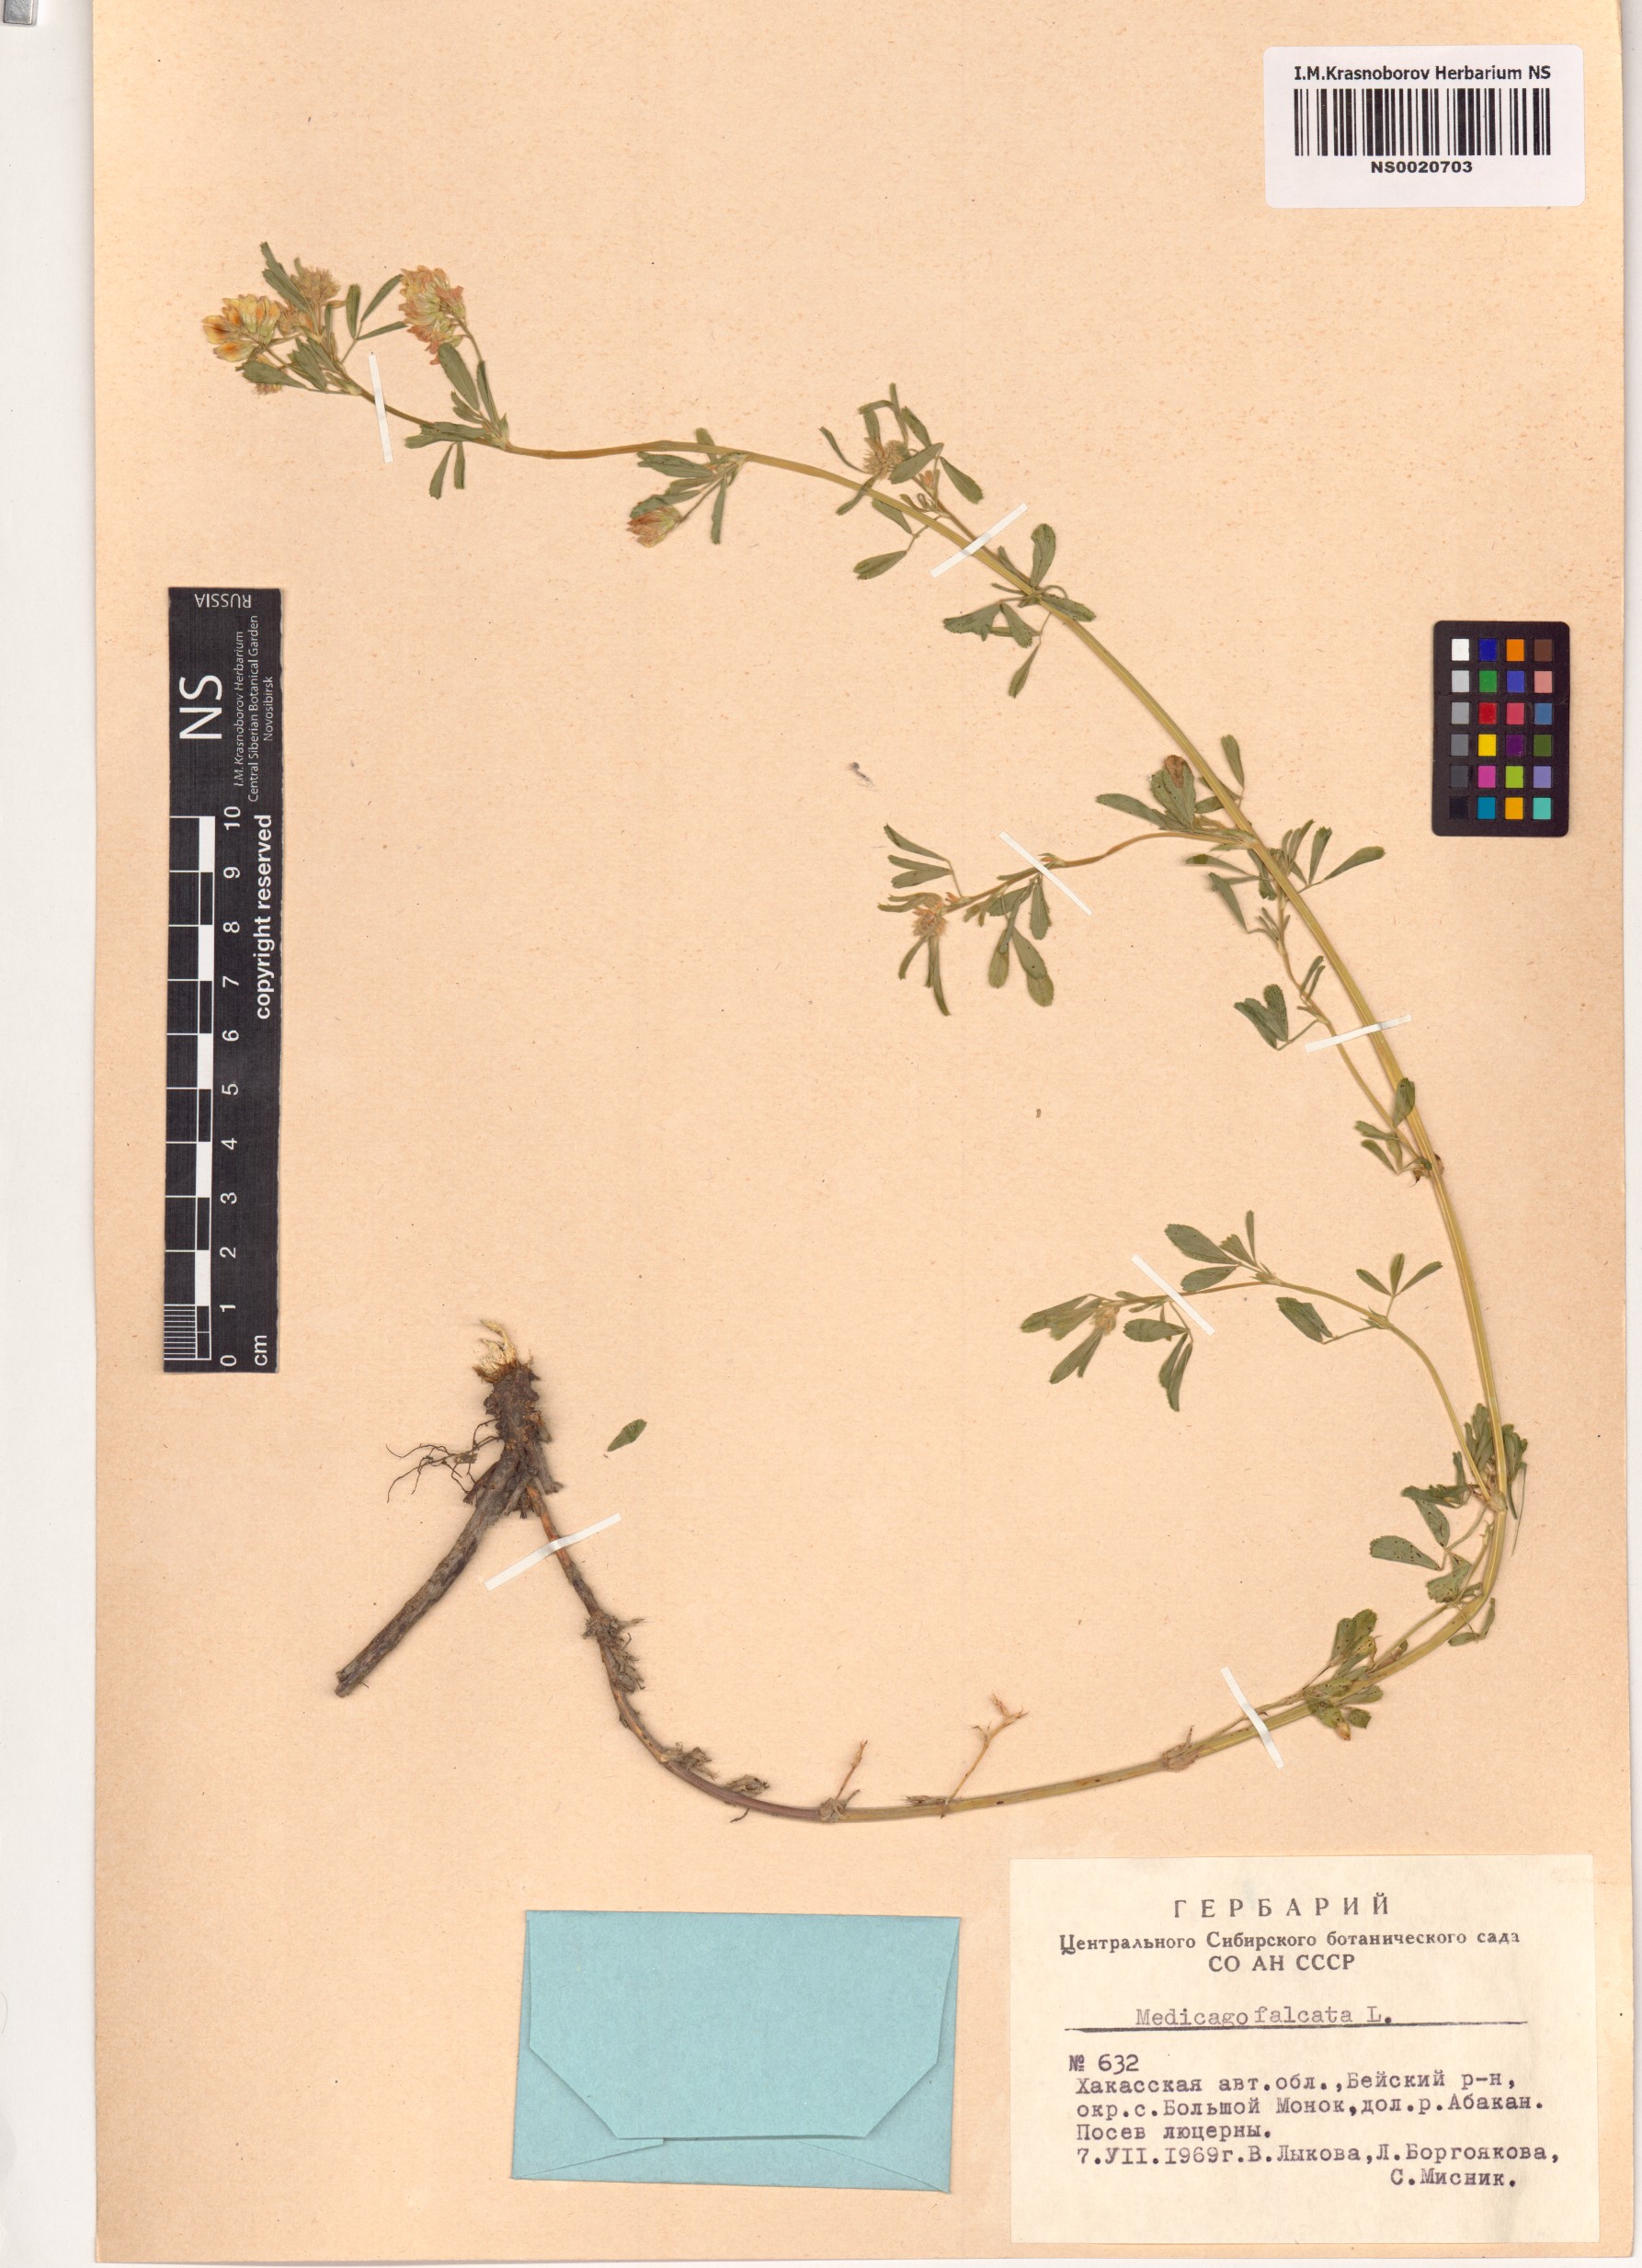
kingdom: Plantae
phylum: Tracheophyta
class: Magnoliopsida
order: Fabales
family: Fabaceae
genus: Medicago
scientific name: Medicago falcata
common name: Sickle medick
